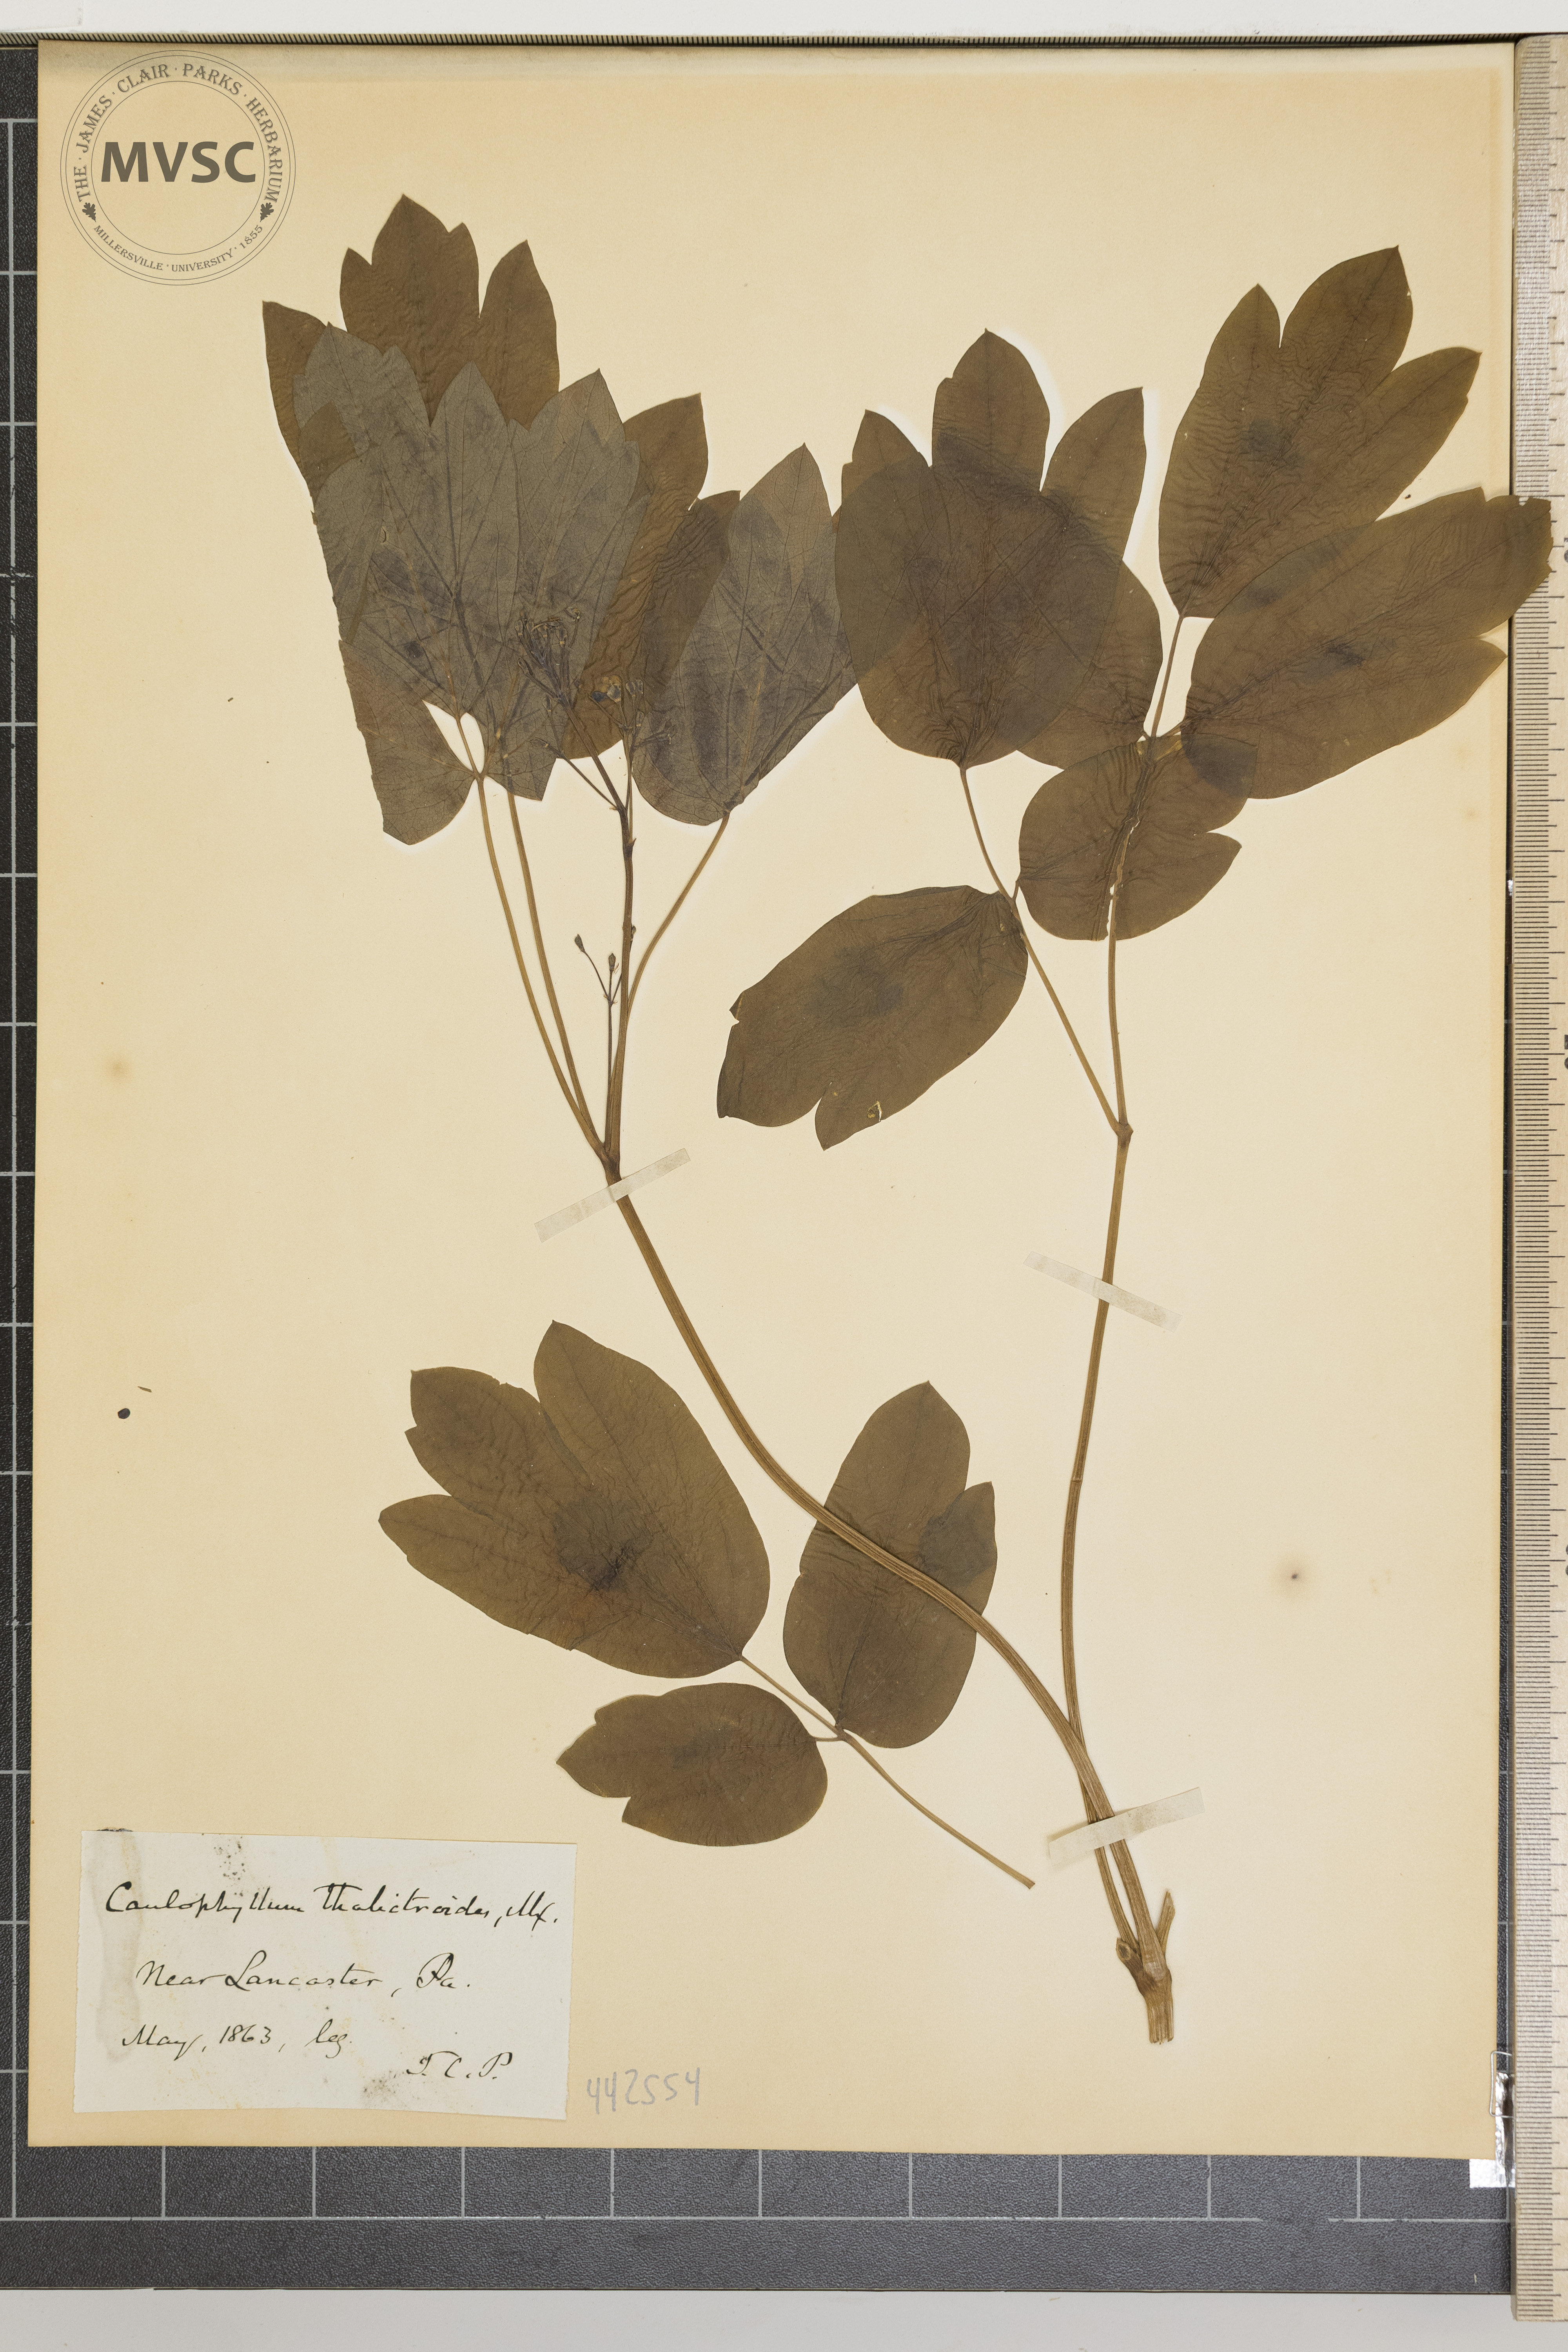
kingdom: Plantae
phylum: Tracheophyta
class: Magnoliopsida
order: Ranunculales
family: Berberidaceae
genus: Caulophyllum
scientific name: Caulophyllum thalictroides
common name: Blue cohosh
